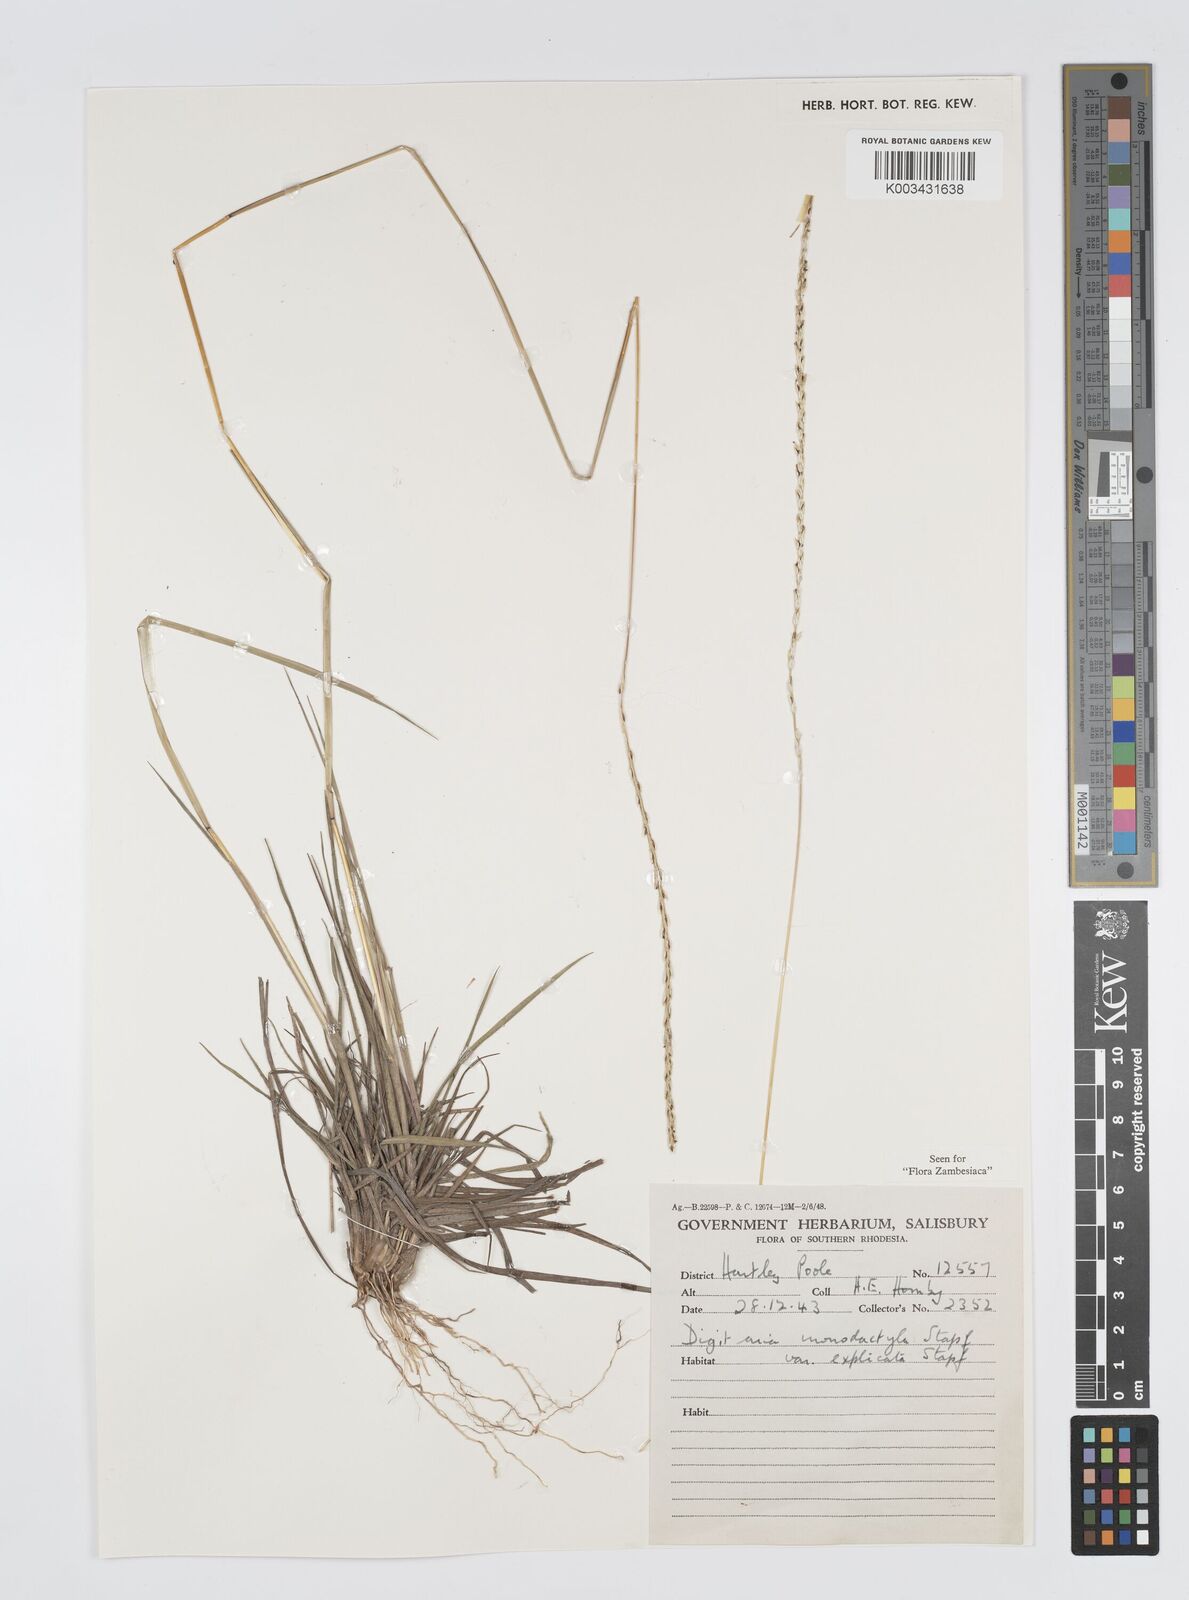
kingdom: Plantae
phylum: Tracheophyta
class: Liliopsida
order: Poales
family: Poaceae
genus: Digitaria
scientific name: Digitaria monodactyla
